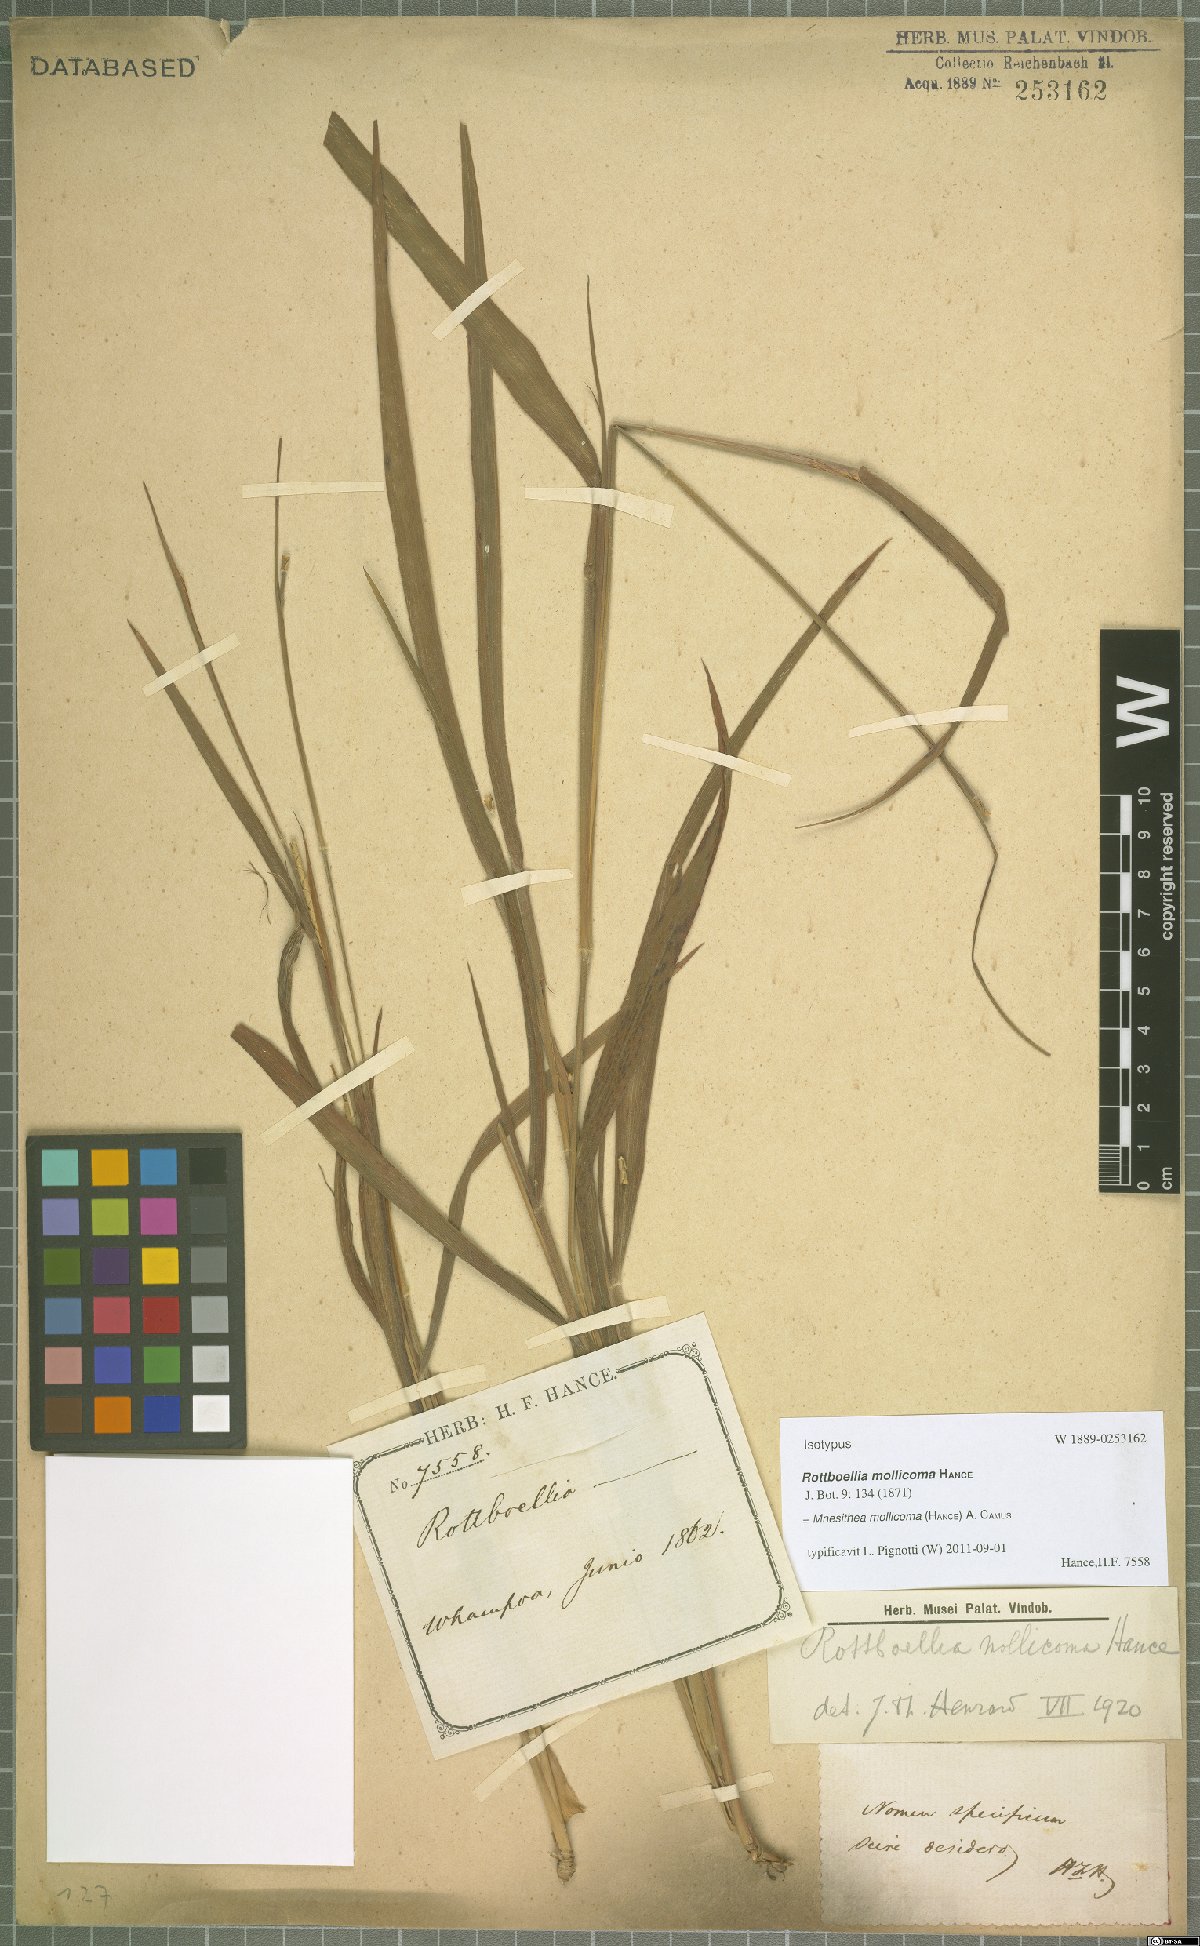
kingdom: Plantae
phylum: Tracheophyta
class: Liliopsida
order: Poales
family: Poaceae
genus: Mnesithea
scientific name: Mnesithea mollicoma
